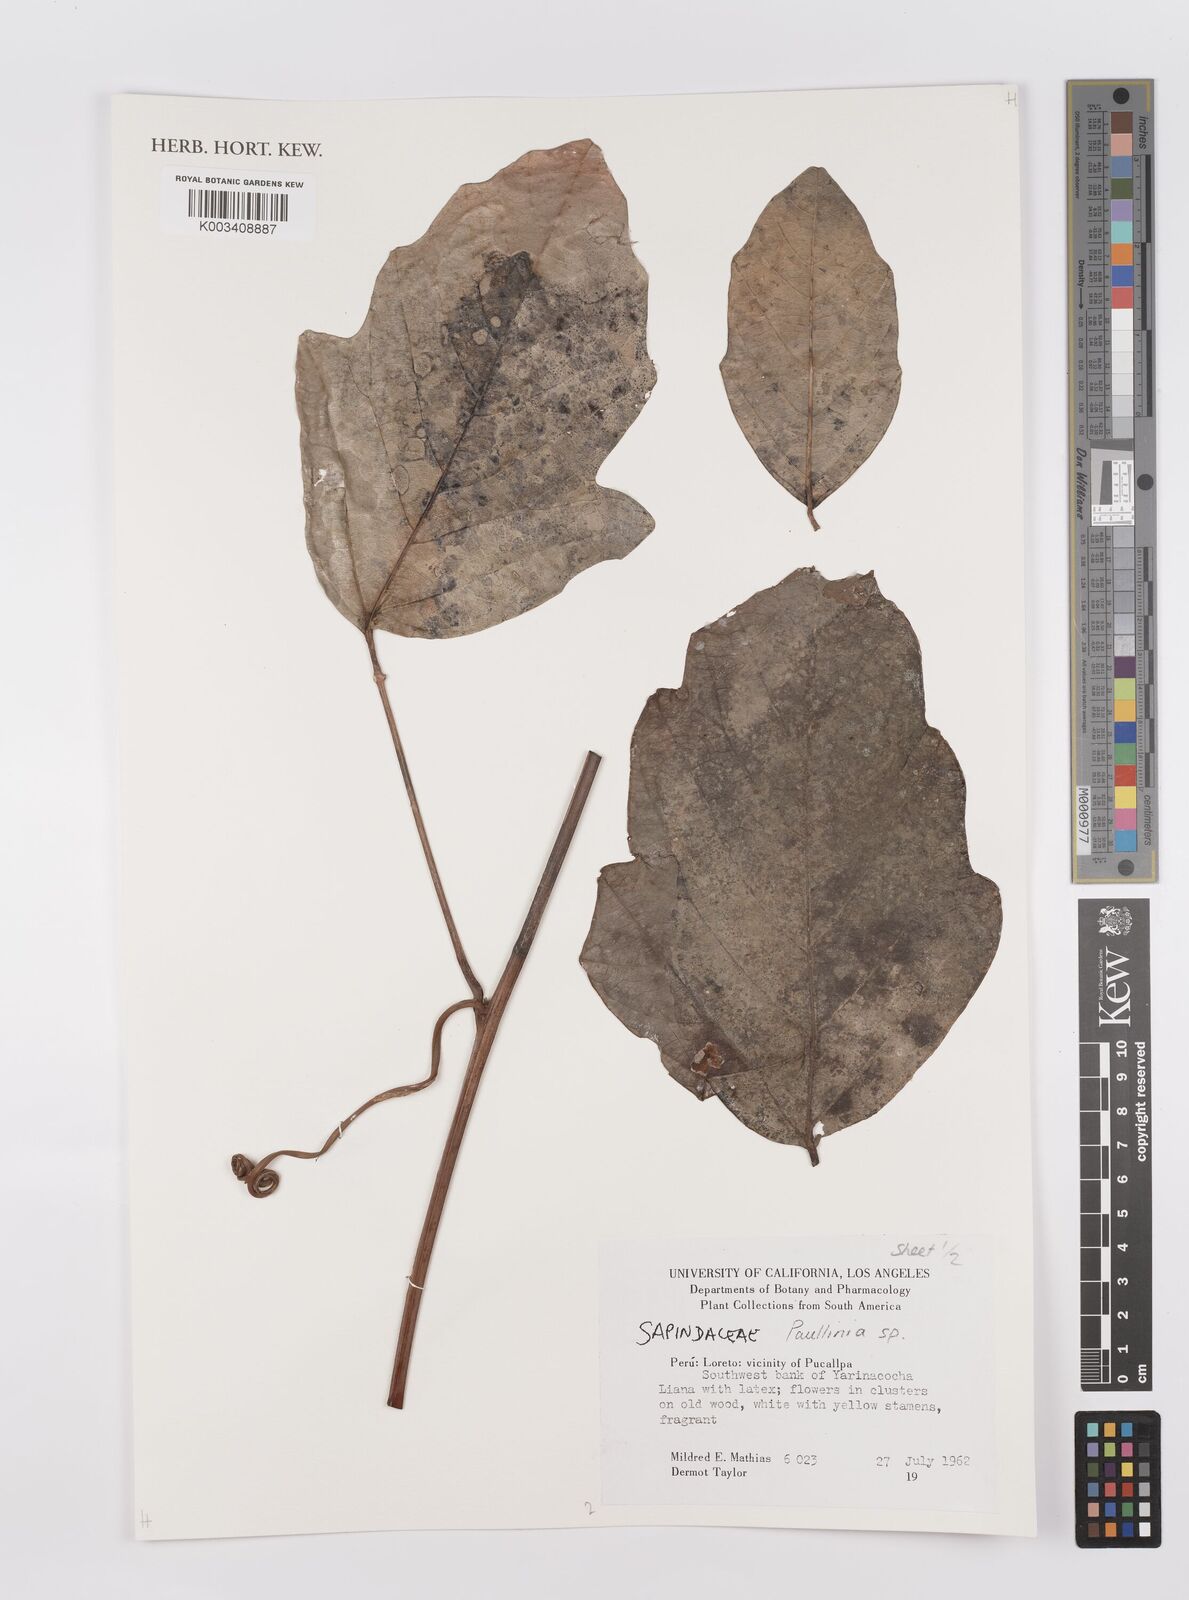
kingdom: Plantae
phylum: Tracheophyta
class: Magnoliopsida
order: Sapindales
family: Sapindaceae
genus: Paullinia
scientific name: Paullinia
